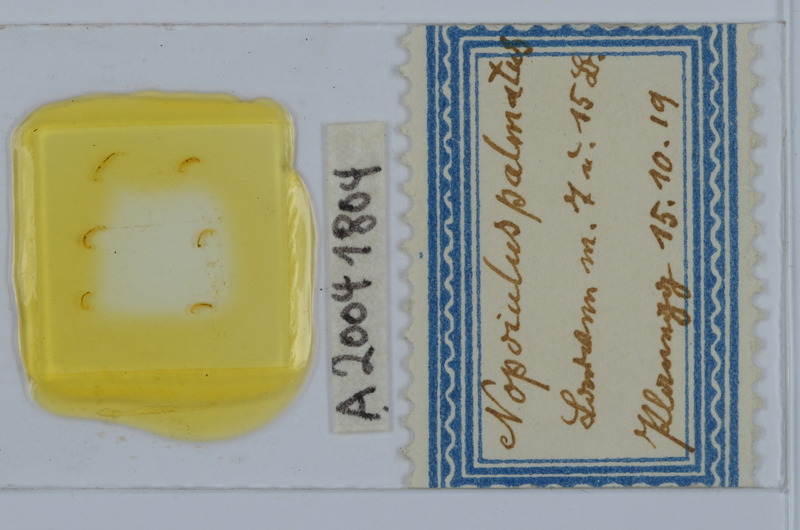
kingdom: Animalia
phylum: Arthropoda
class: Diplopoda
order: Julida
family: Blaniulidae
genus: Nopoiulus
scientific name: Nopoiulus palmatus
